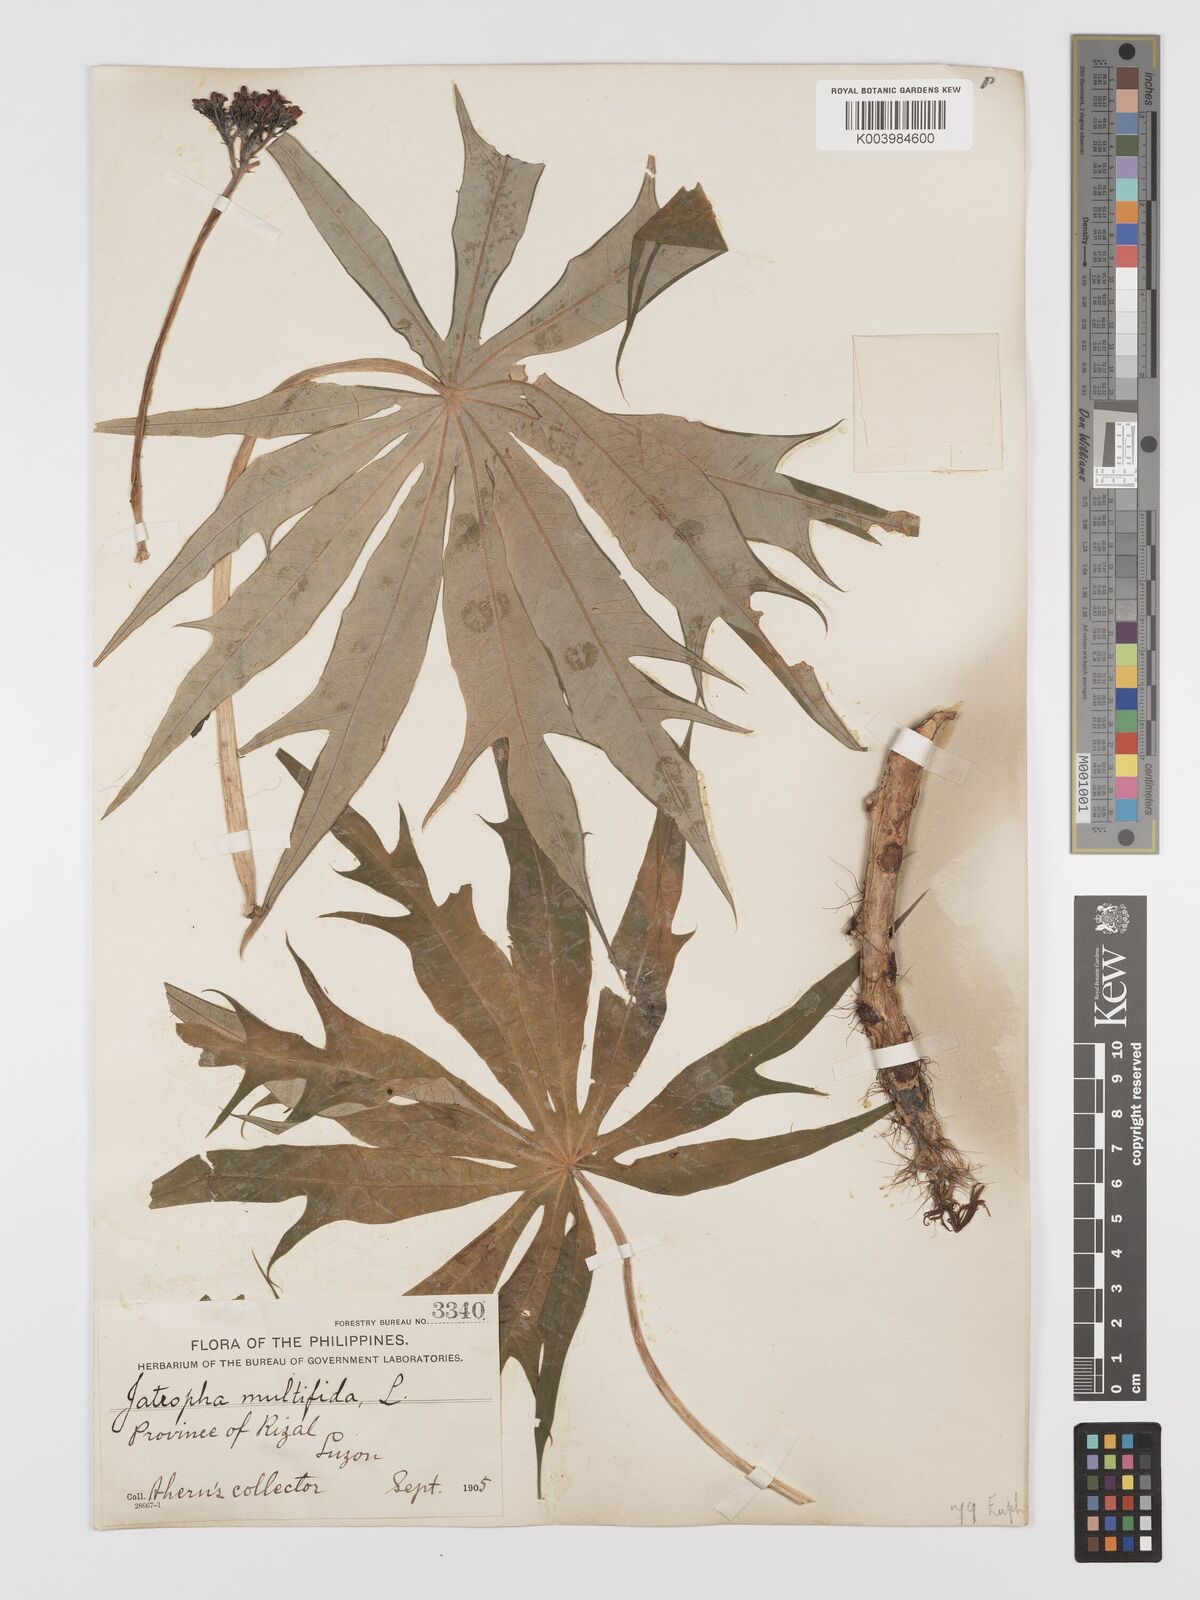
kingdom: Plantae
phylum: Tracheophyta
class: Magnoliopsida
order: Malpighiales
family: Euphorbiaceae
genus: Jatropha
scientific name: Jatropha multifida
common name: Coralbush
